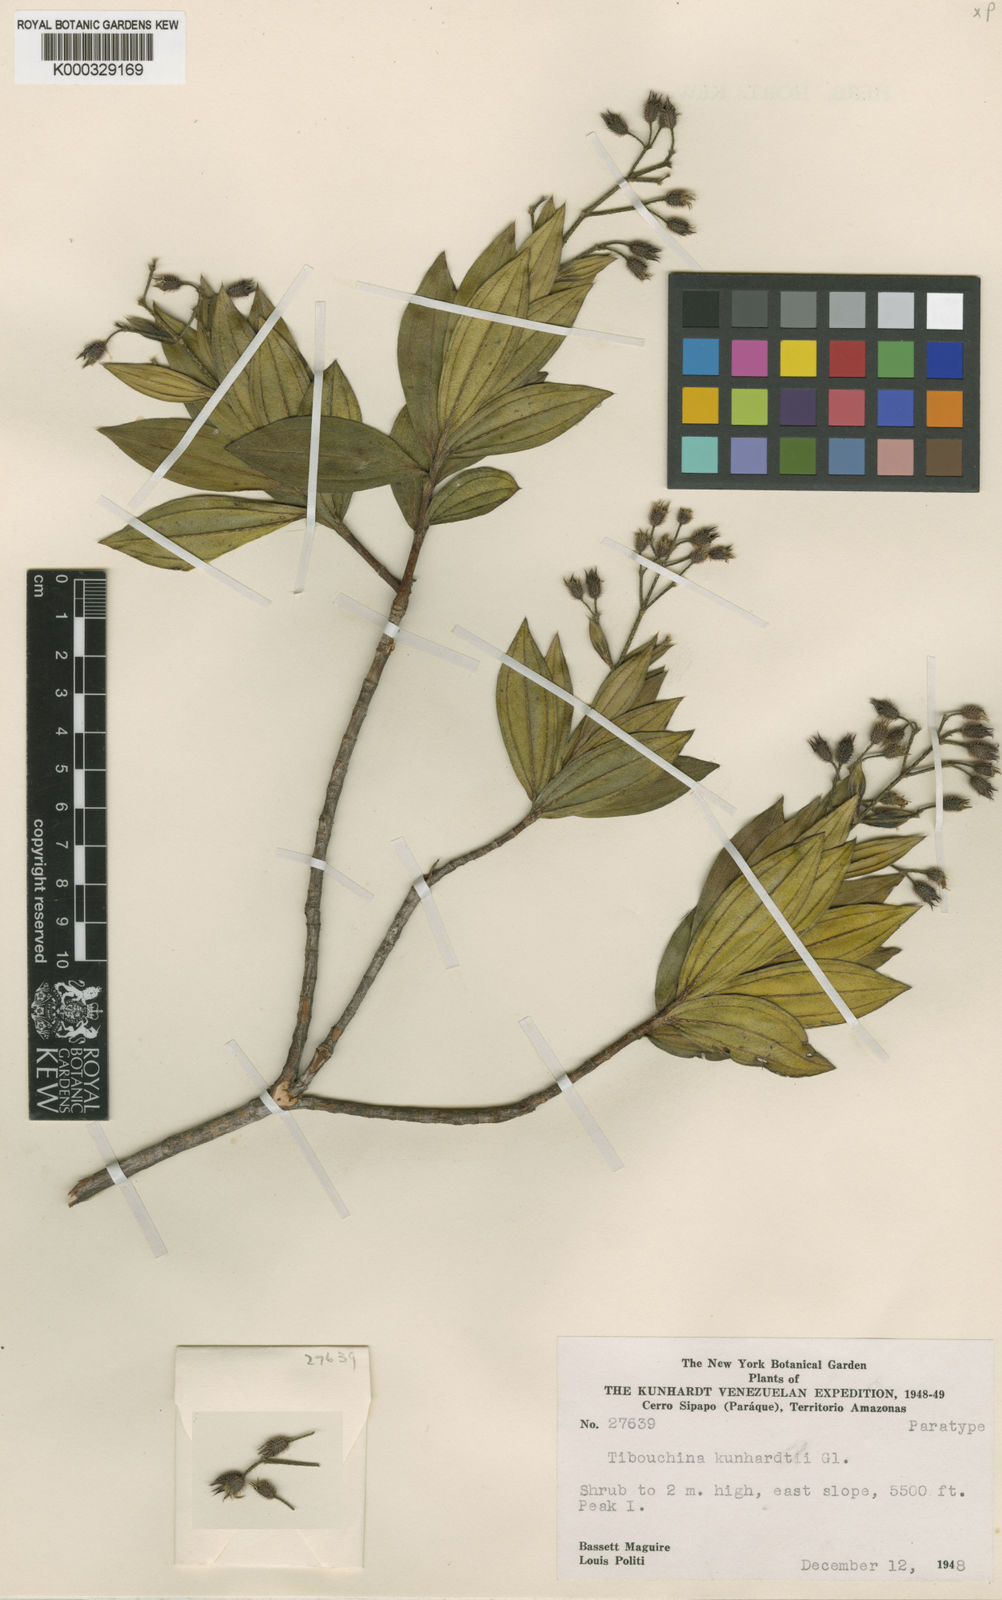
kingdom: Plantae
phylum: Tracheophyta
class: Magnoliopsida
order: Myrtales
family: Melastomataceae
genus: Chaetogastra
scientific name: Chaetogastra kunhardtii
